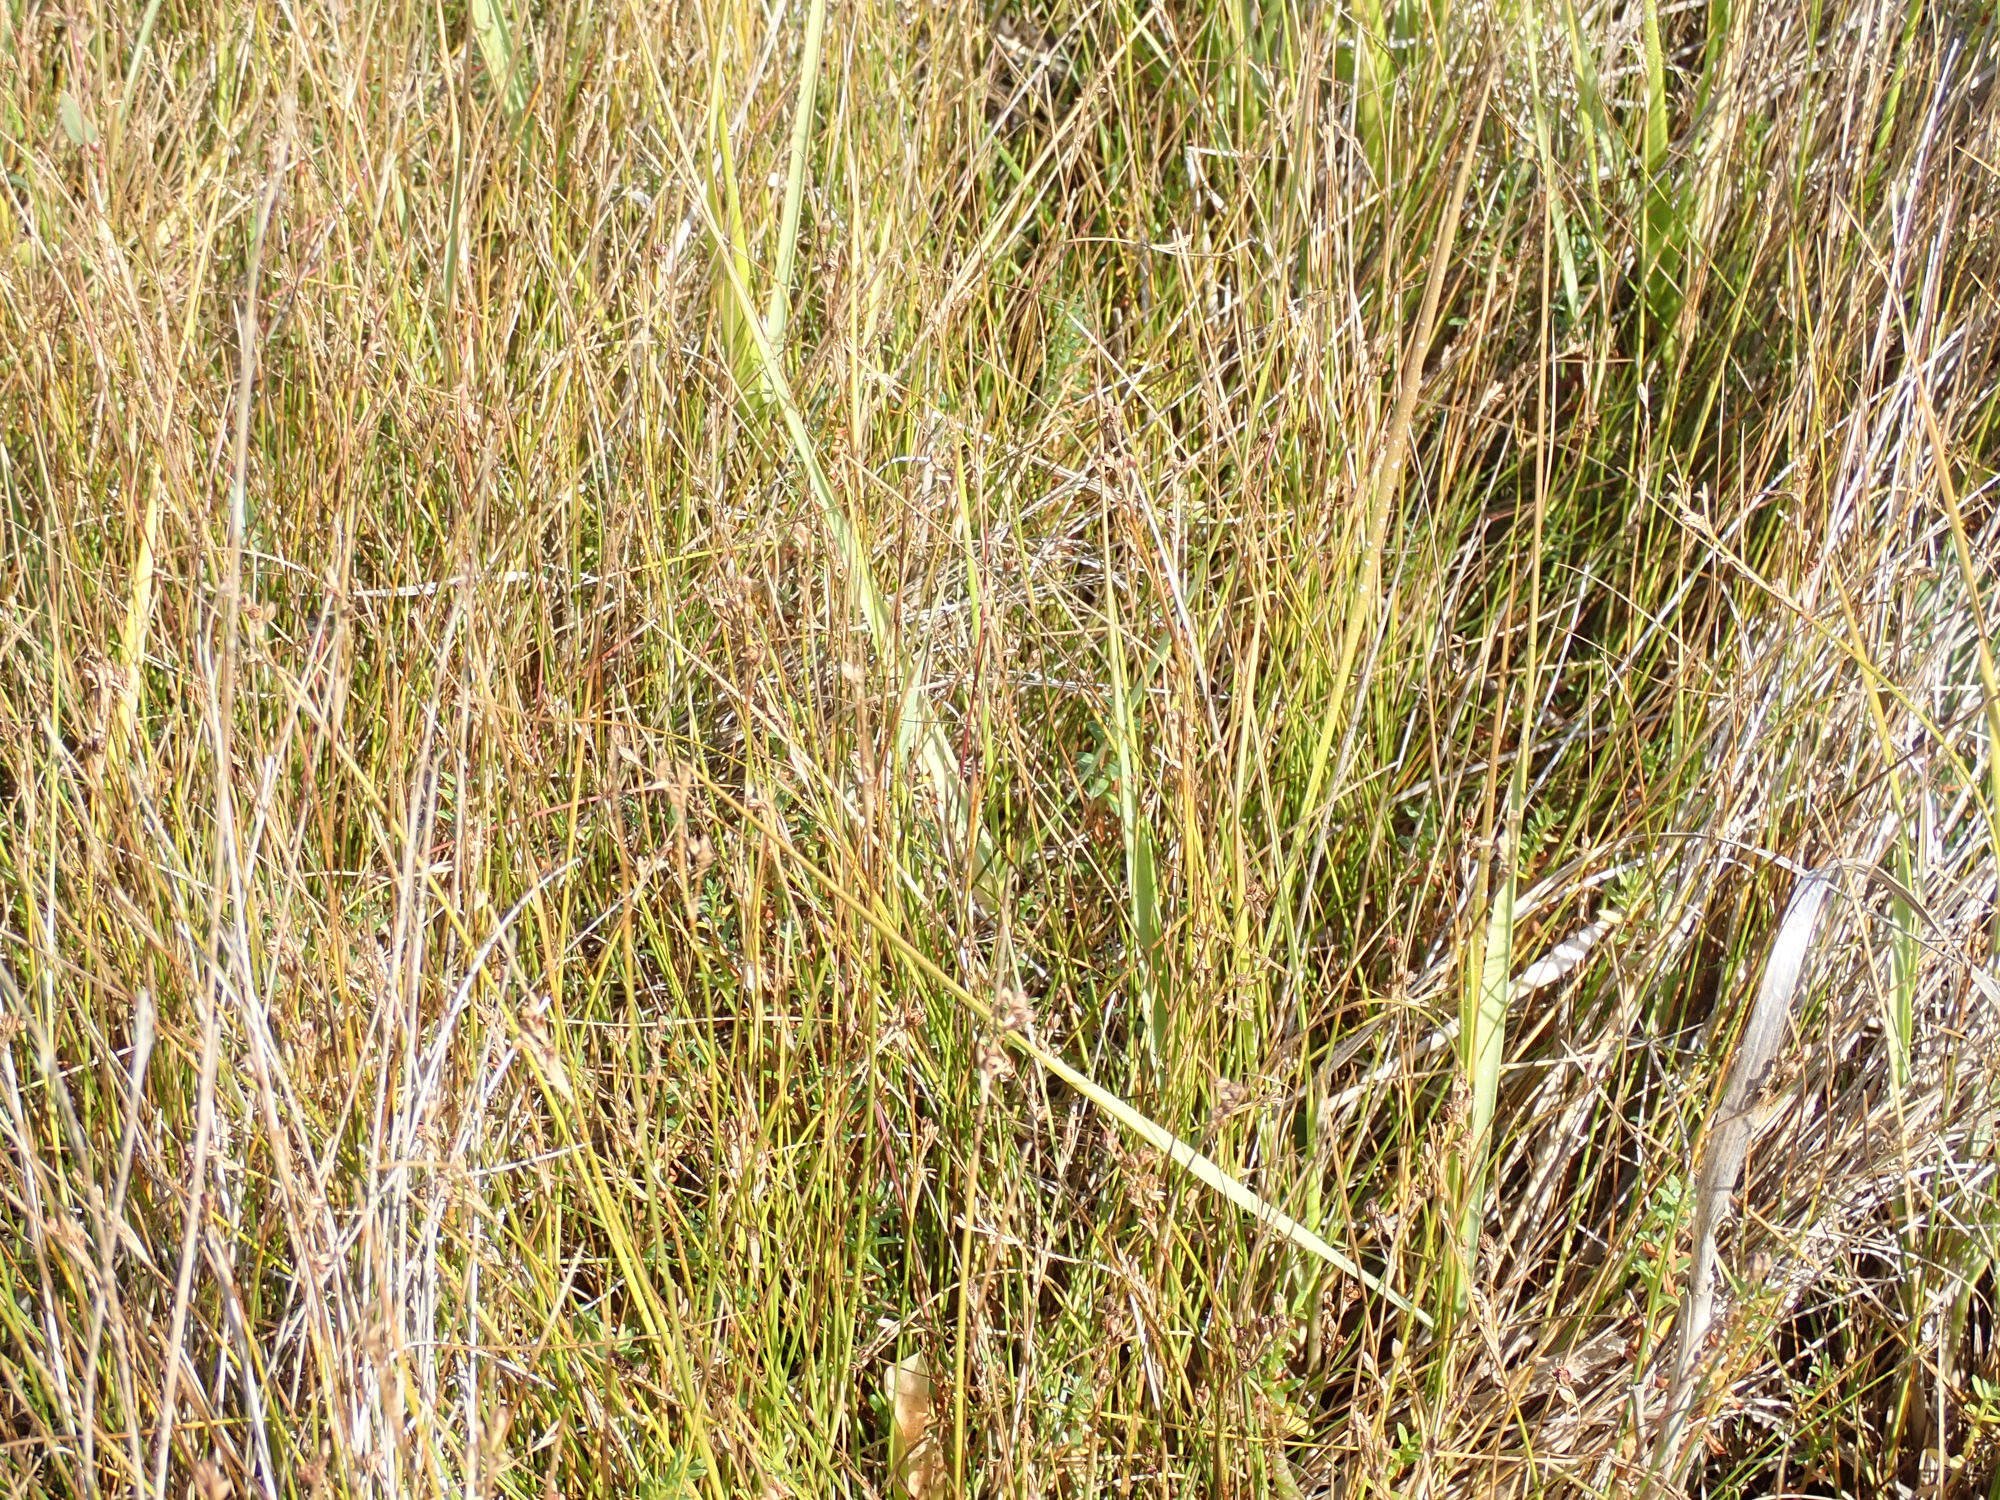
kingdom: Plantae
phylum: Tracheophyta
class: Liliopsida
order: Poales
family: Juncaceae
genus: Juncus
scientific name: Juncus gerardi
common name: Harril
